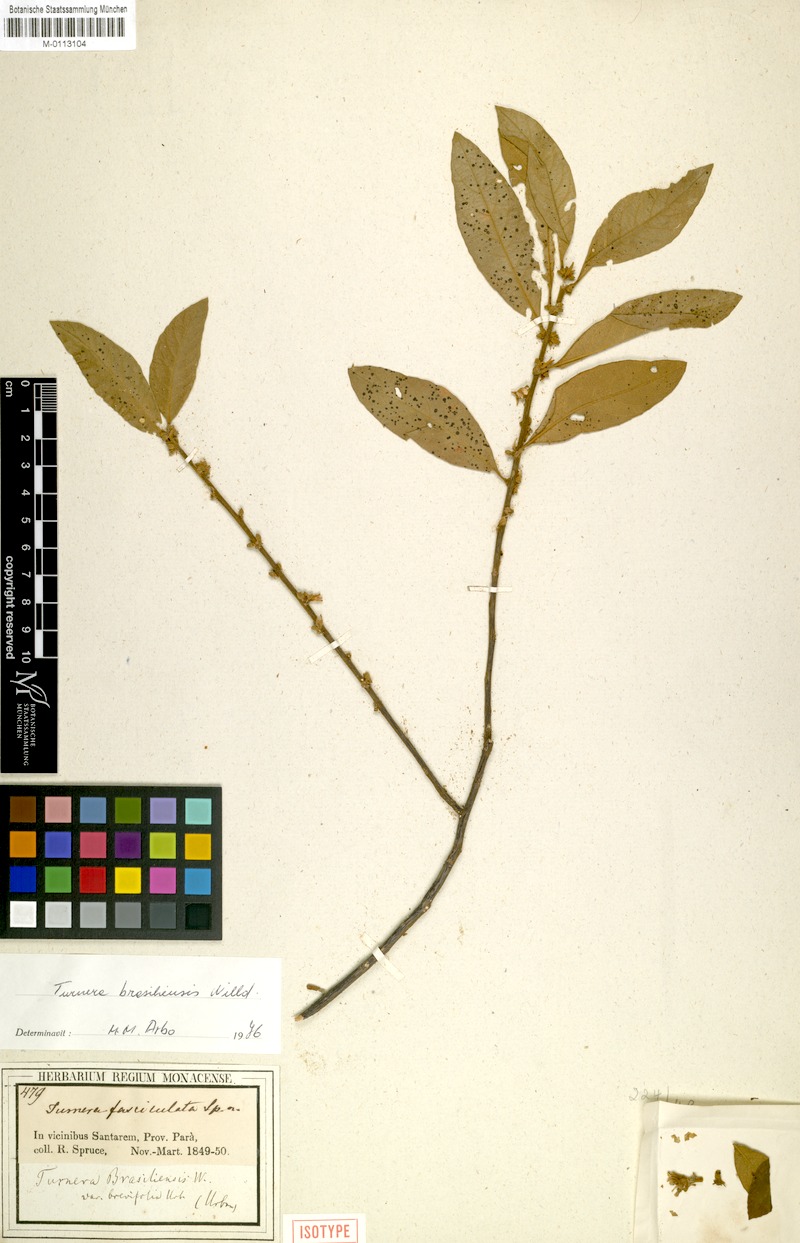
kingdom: Plantae
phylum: Tracheophyta
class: Magnoliopsida
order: Malpighiales
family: Turneraceae
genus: Turnera
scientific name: Turnera brasiliensis
